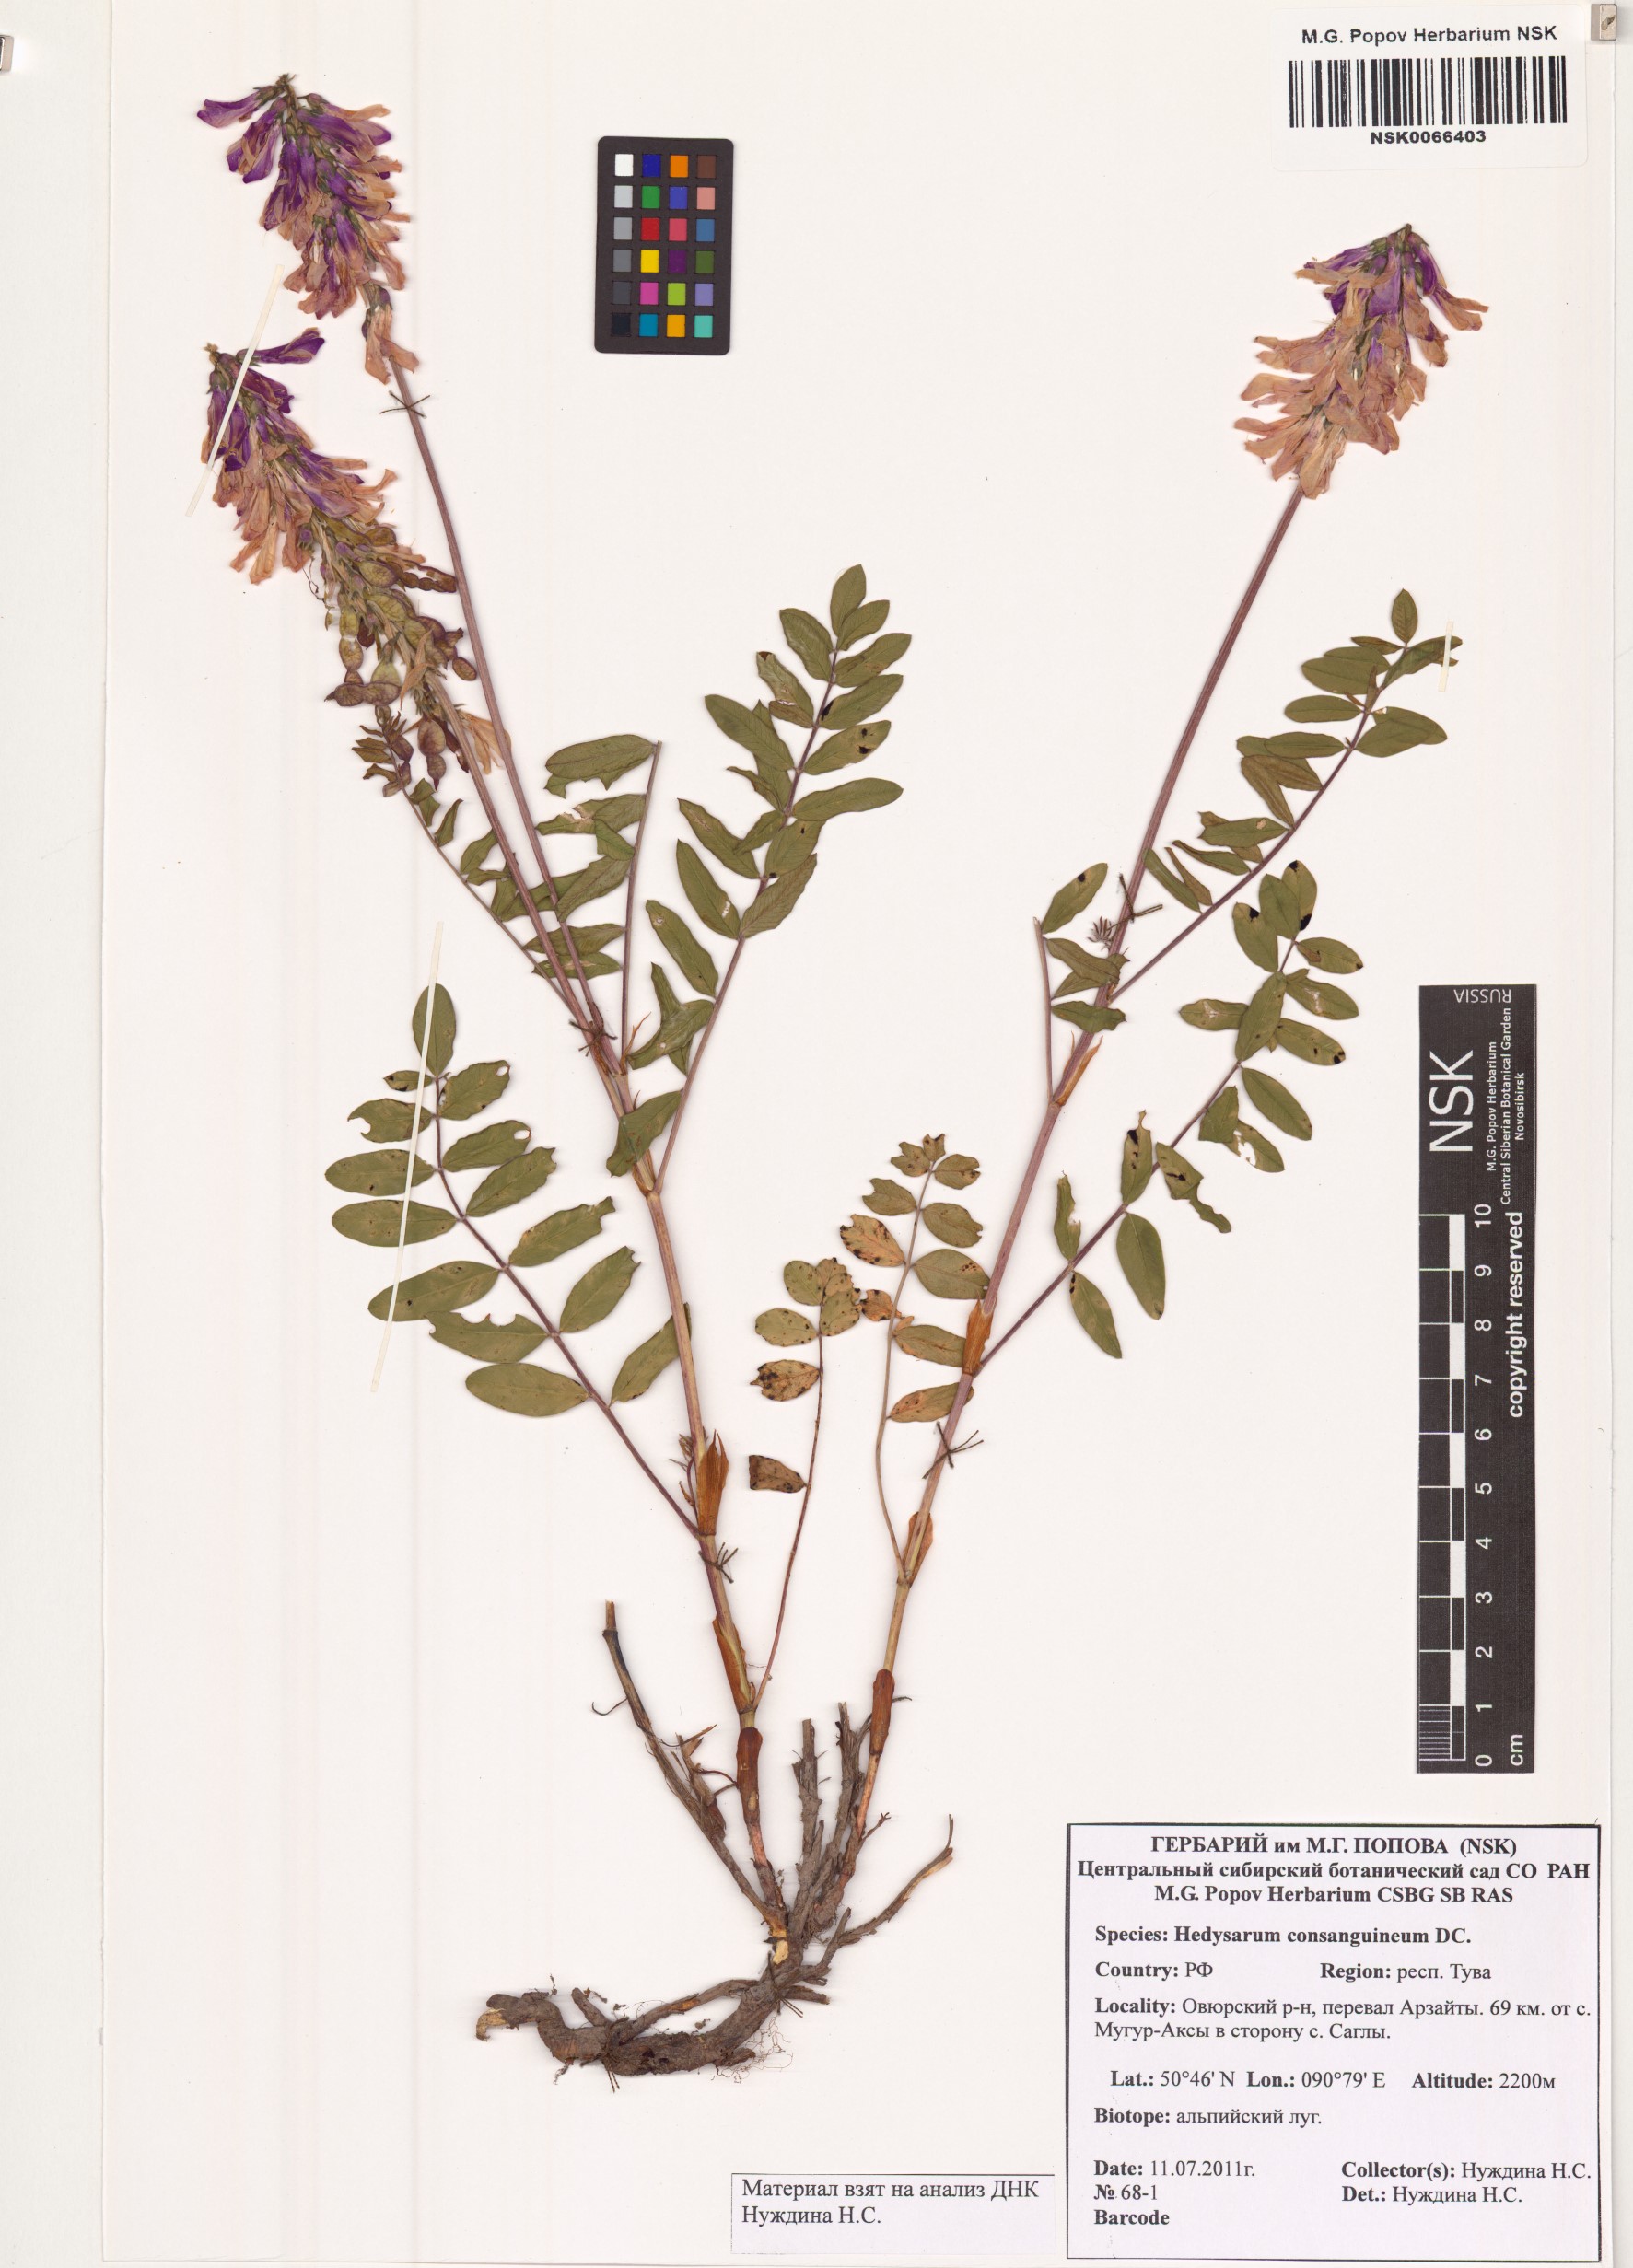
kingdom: Plantae
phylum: Tracheophyta
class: Magnoliopsida
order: Fabales
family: Fabaceae
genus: Hedysarum
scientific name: Hedysarum consanguineum
